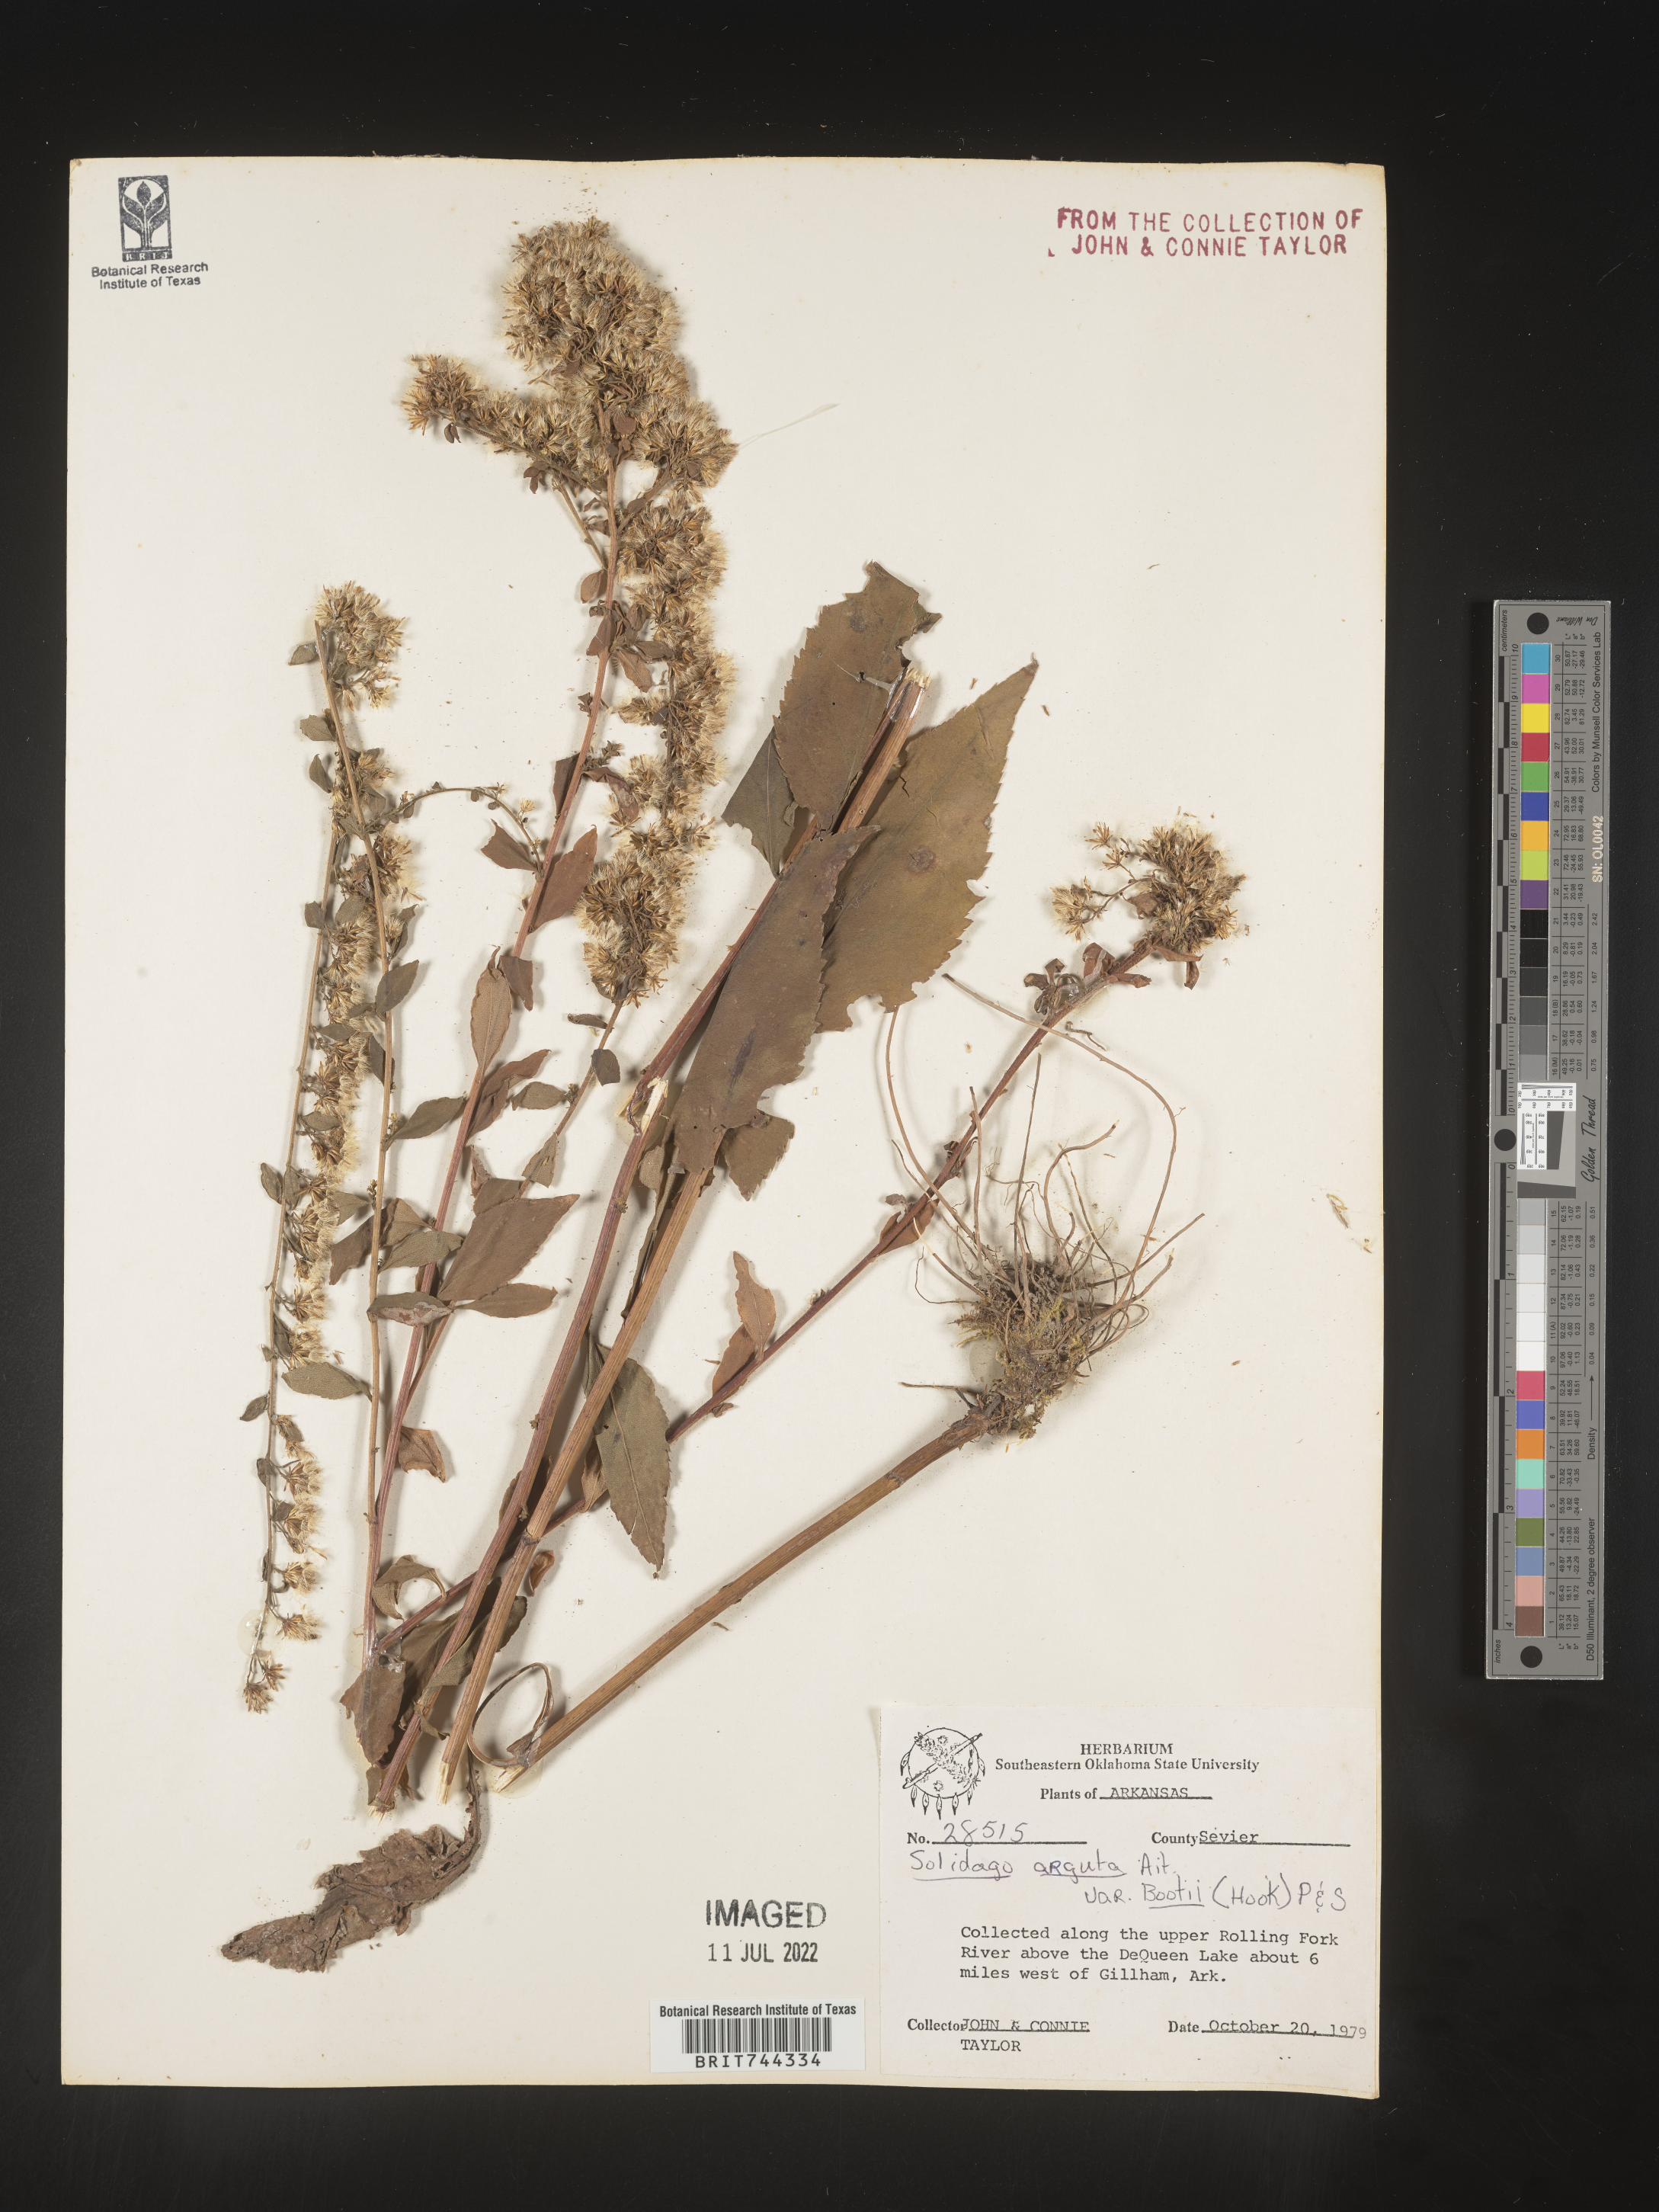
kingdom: Plantae
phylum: Tracheophyta
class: Magnoliopsida
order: Asterales
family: Asteraceae
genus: Solidago
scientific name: Solidago arguta
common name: Atlantic goldenrod
